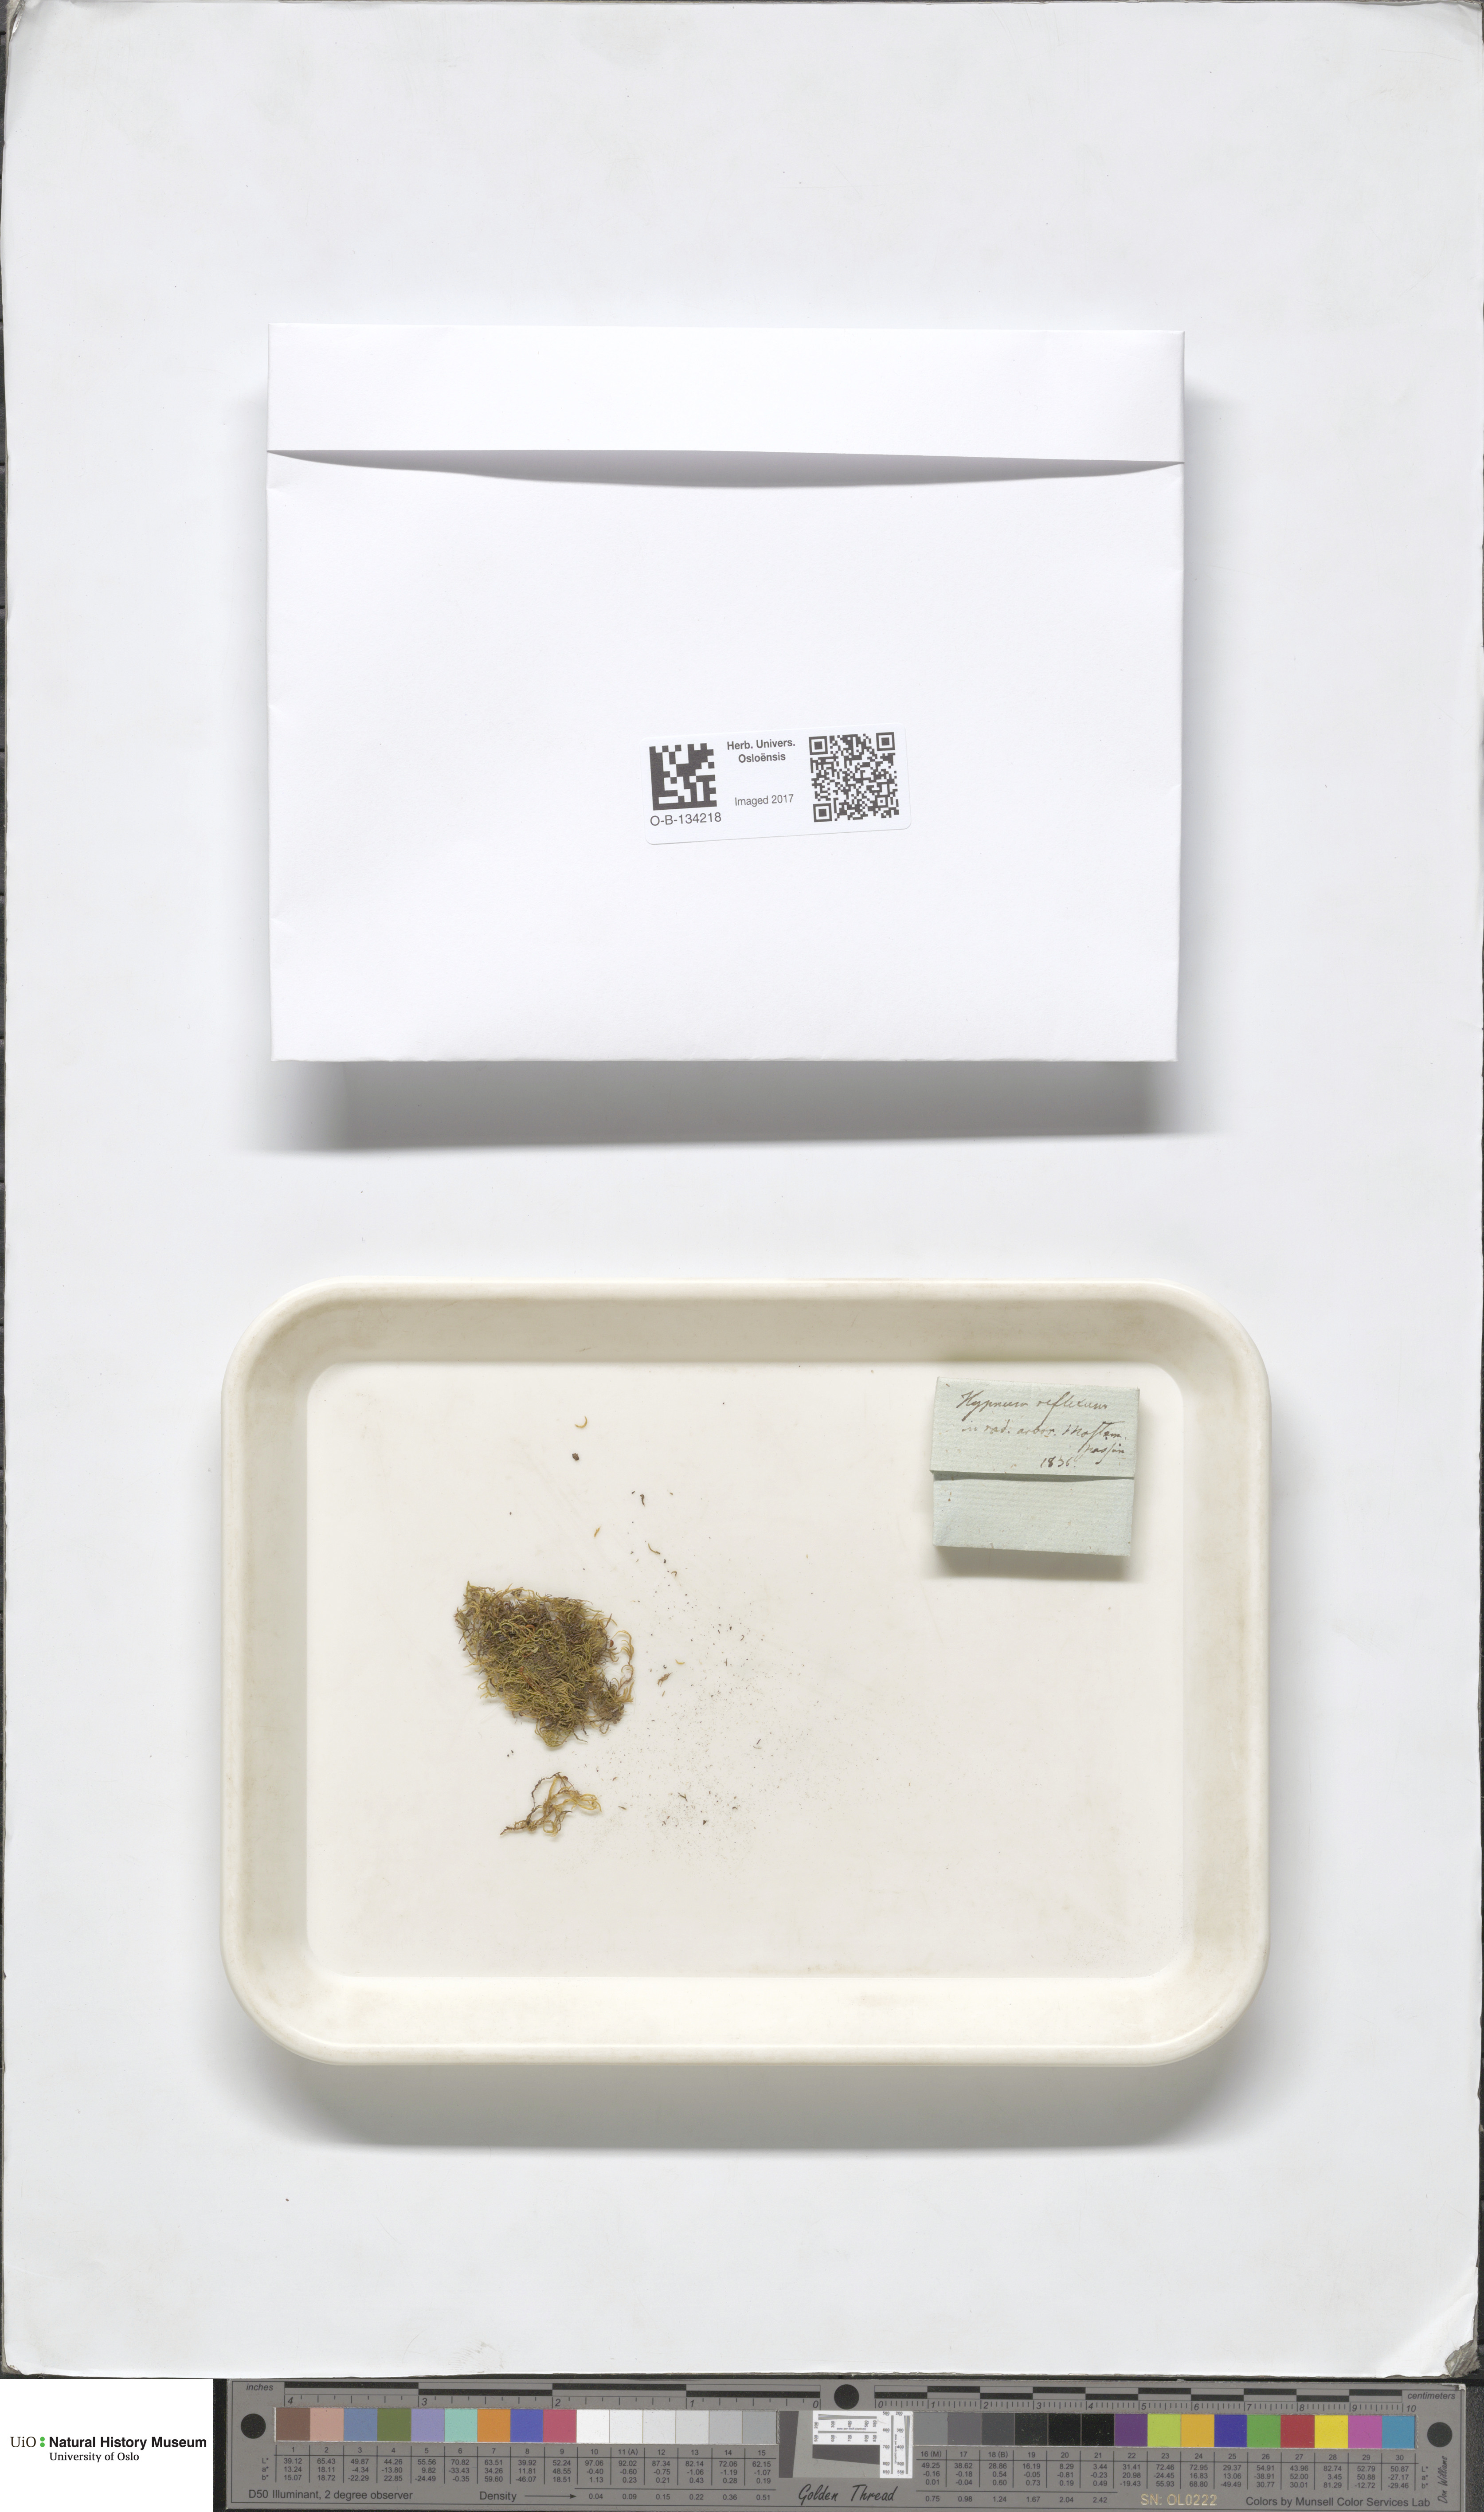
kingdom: Plantae
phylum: Bryophyta
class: Bryopsida
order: Hypnales
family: Brachytheciaceae
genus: Sciuro-hypnum
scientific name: Sciuro-hypnum reflexum
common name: Reflexed feather-moss
